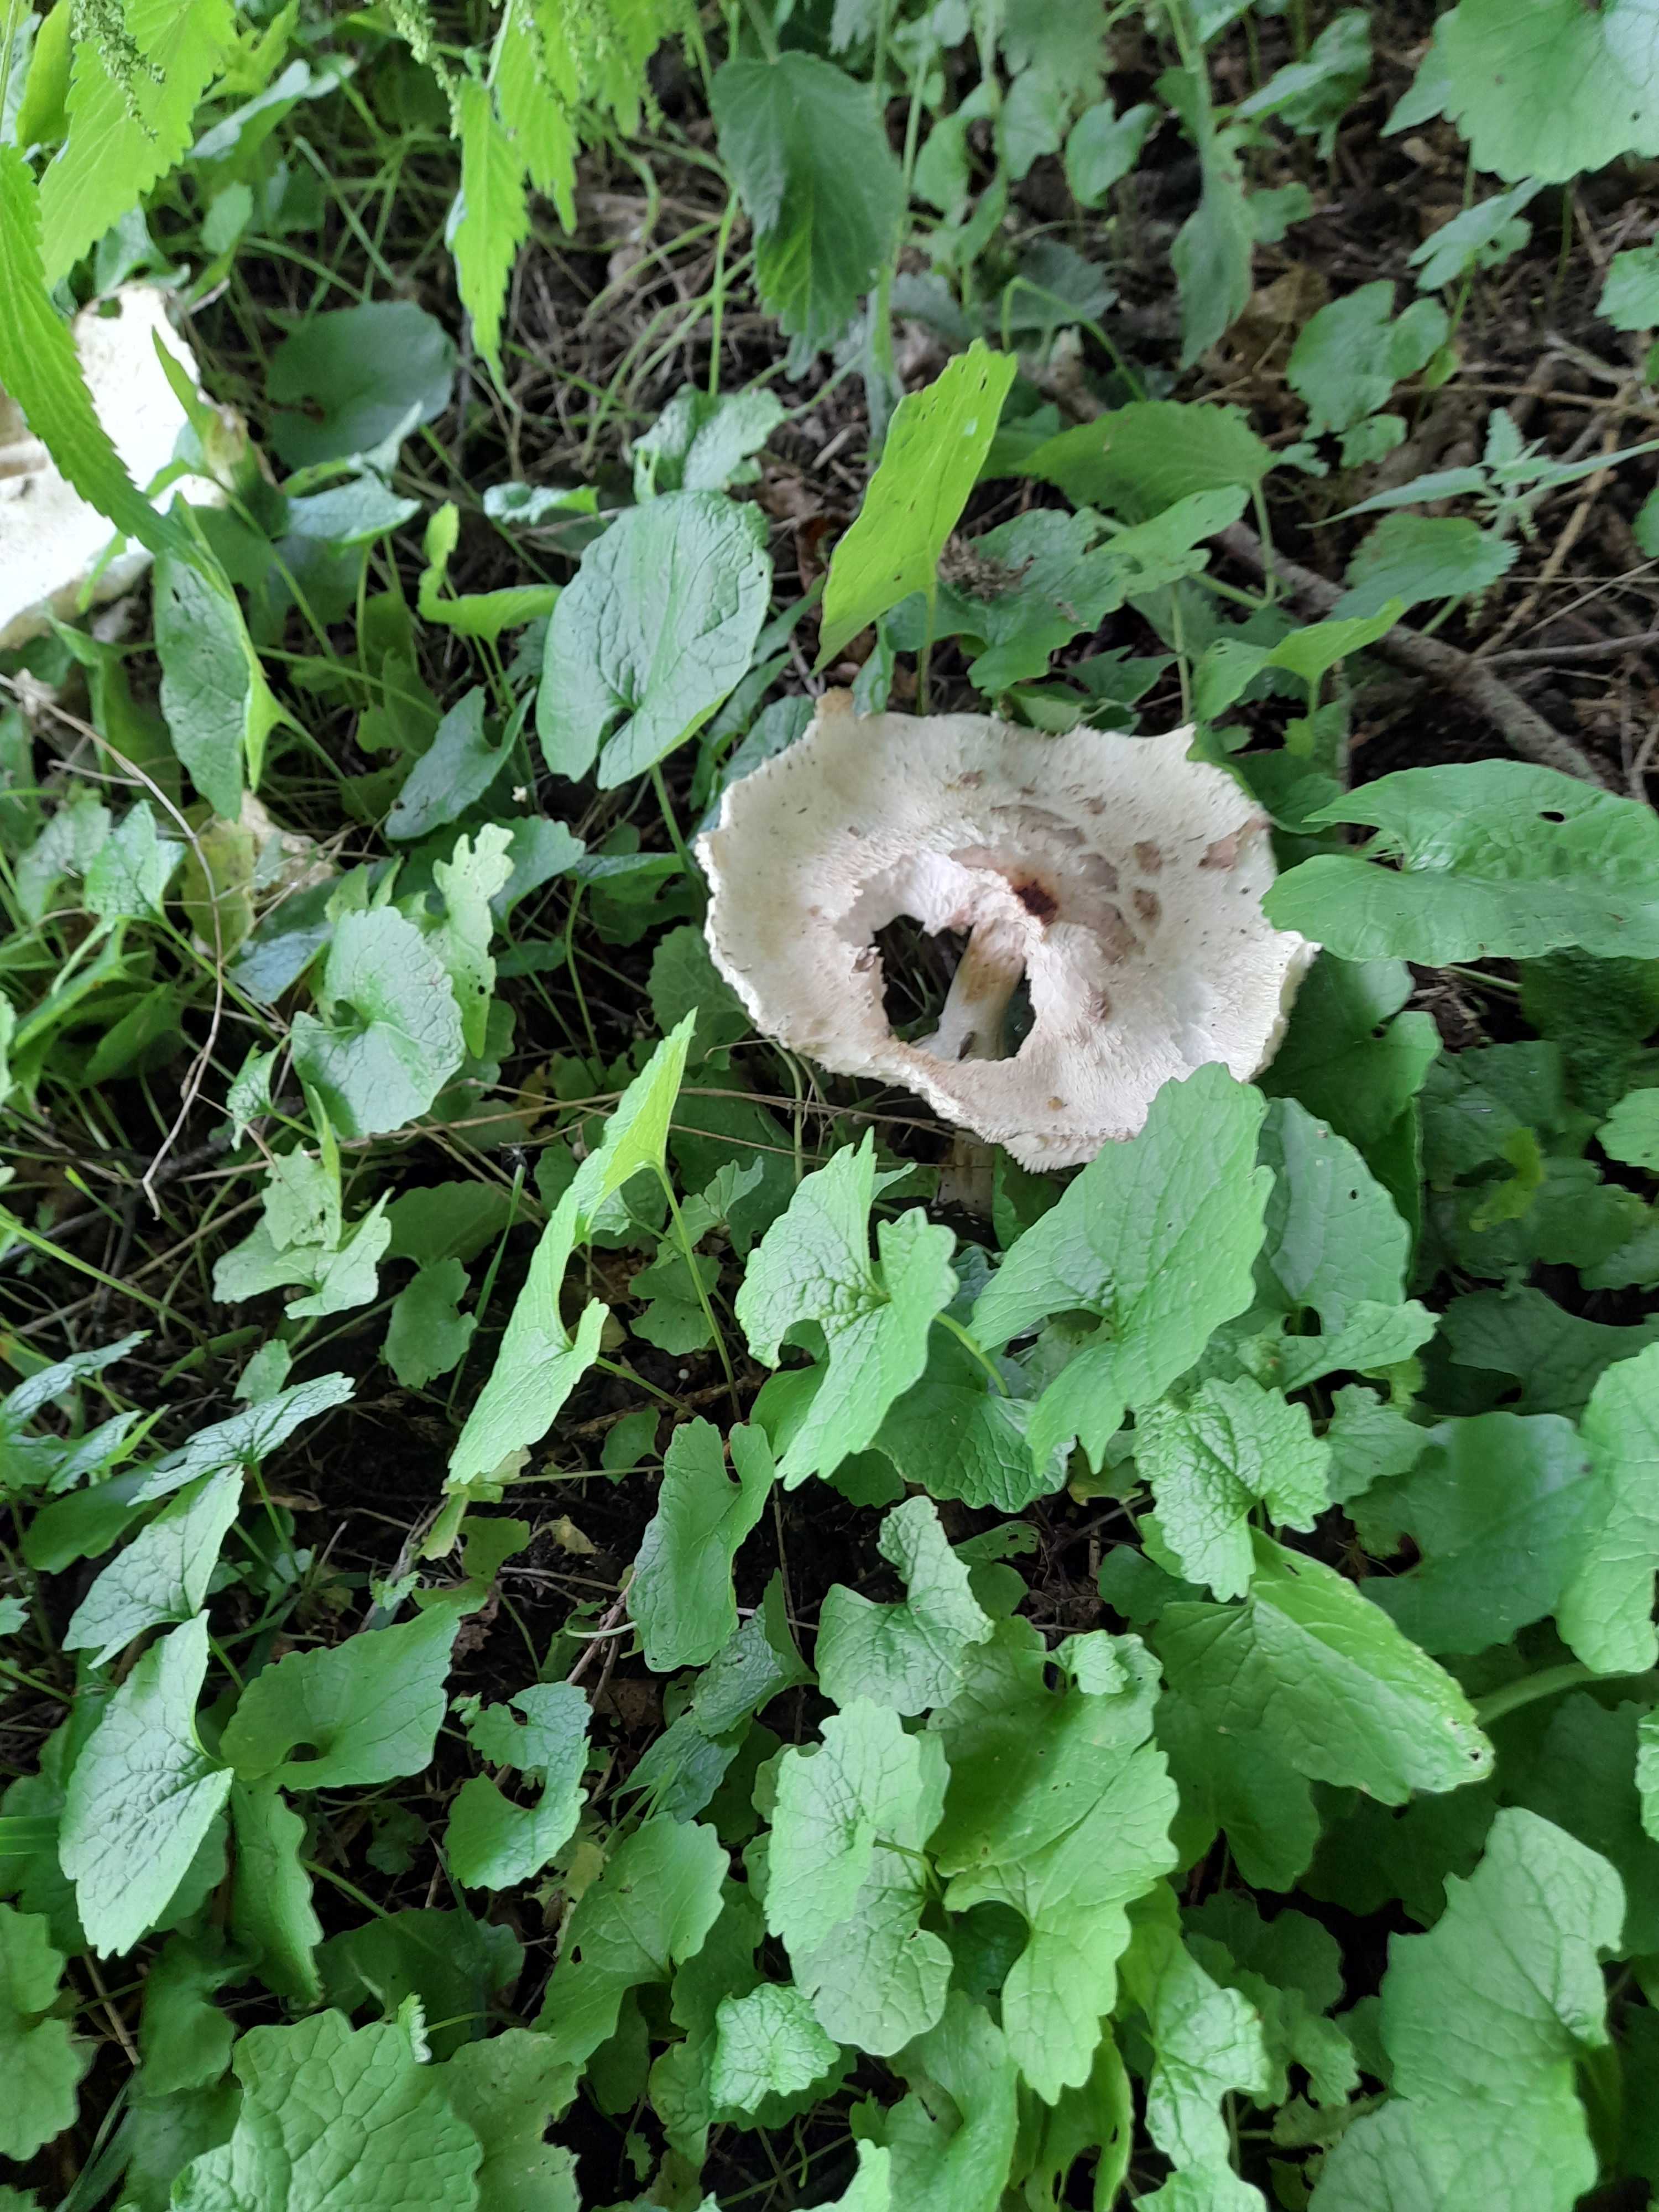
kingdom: Fungi
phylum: Basidiomycota
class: Agaricomycetes
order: Agaricales
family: Agaricaceae
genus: Chlorophyllum
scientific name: Chlorophyllum
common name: rabarberhat
